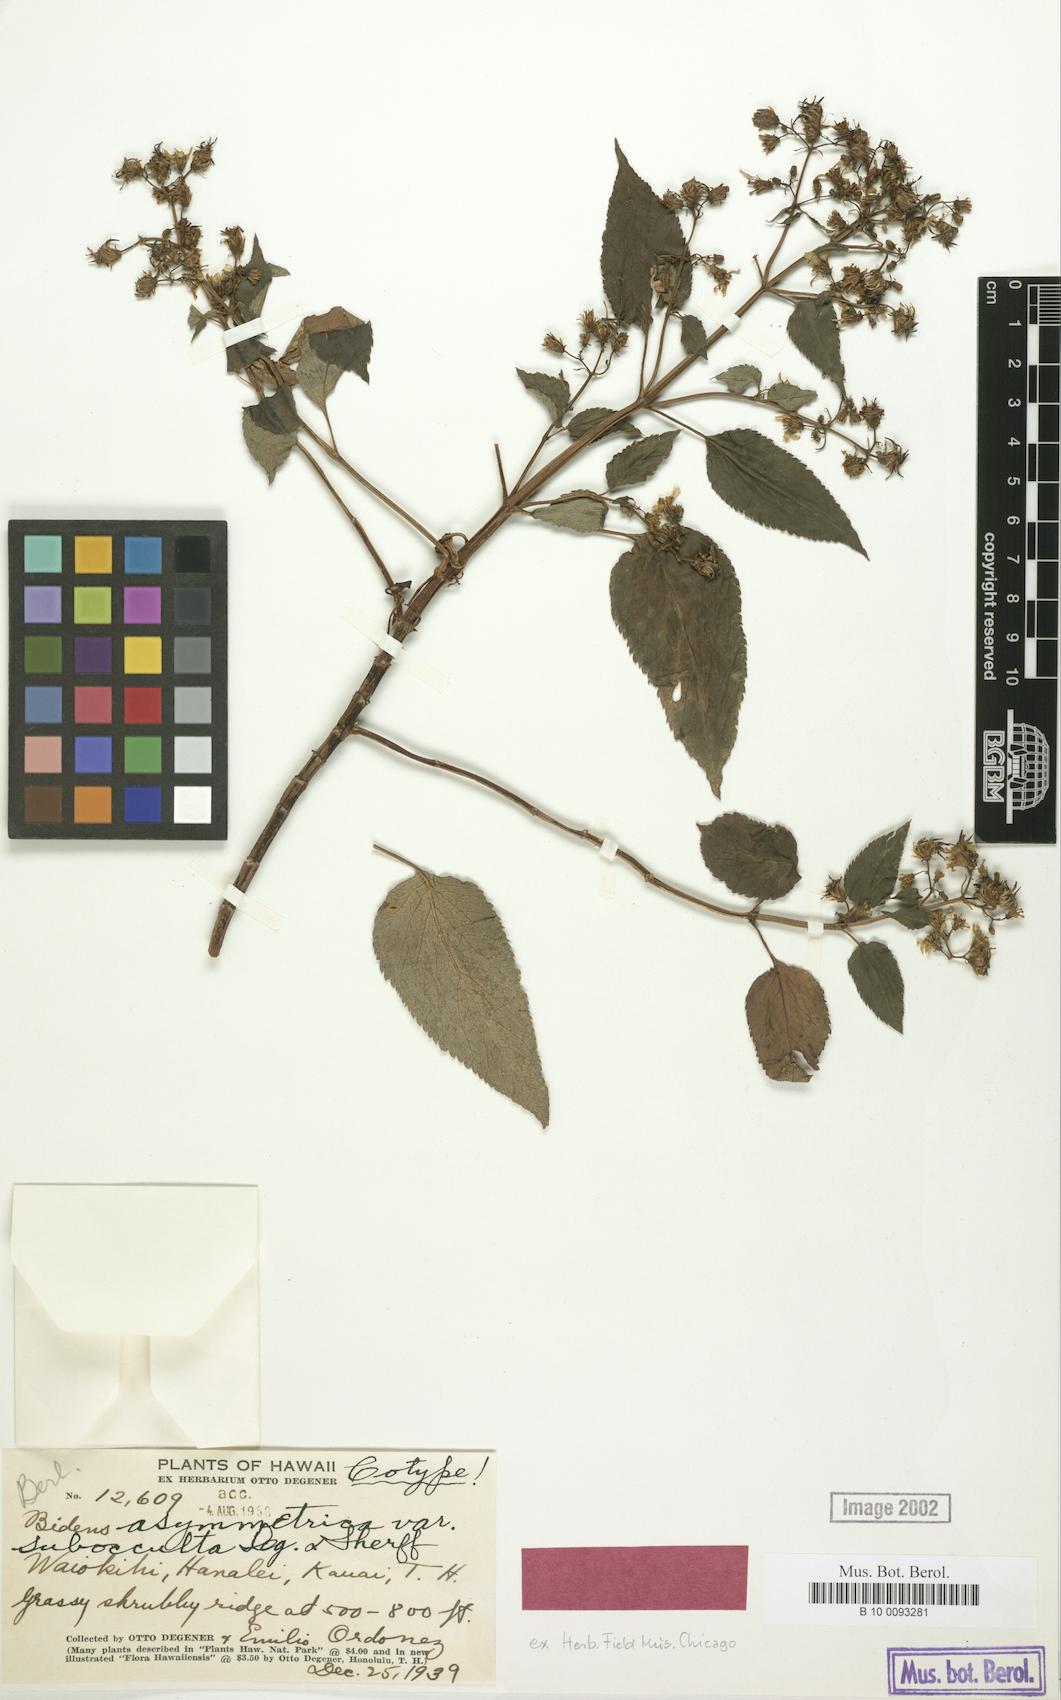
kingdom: Plantae
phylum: Tracheophyta
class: Magnoliopsida
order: Asterales
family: Asteraceae
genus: Bidens
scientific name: Bidens forbesii
